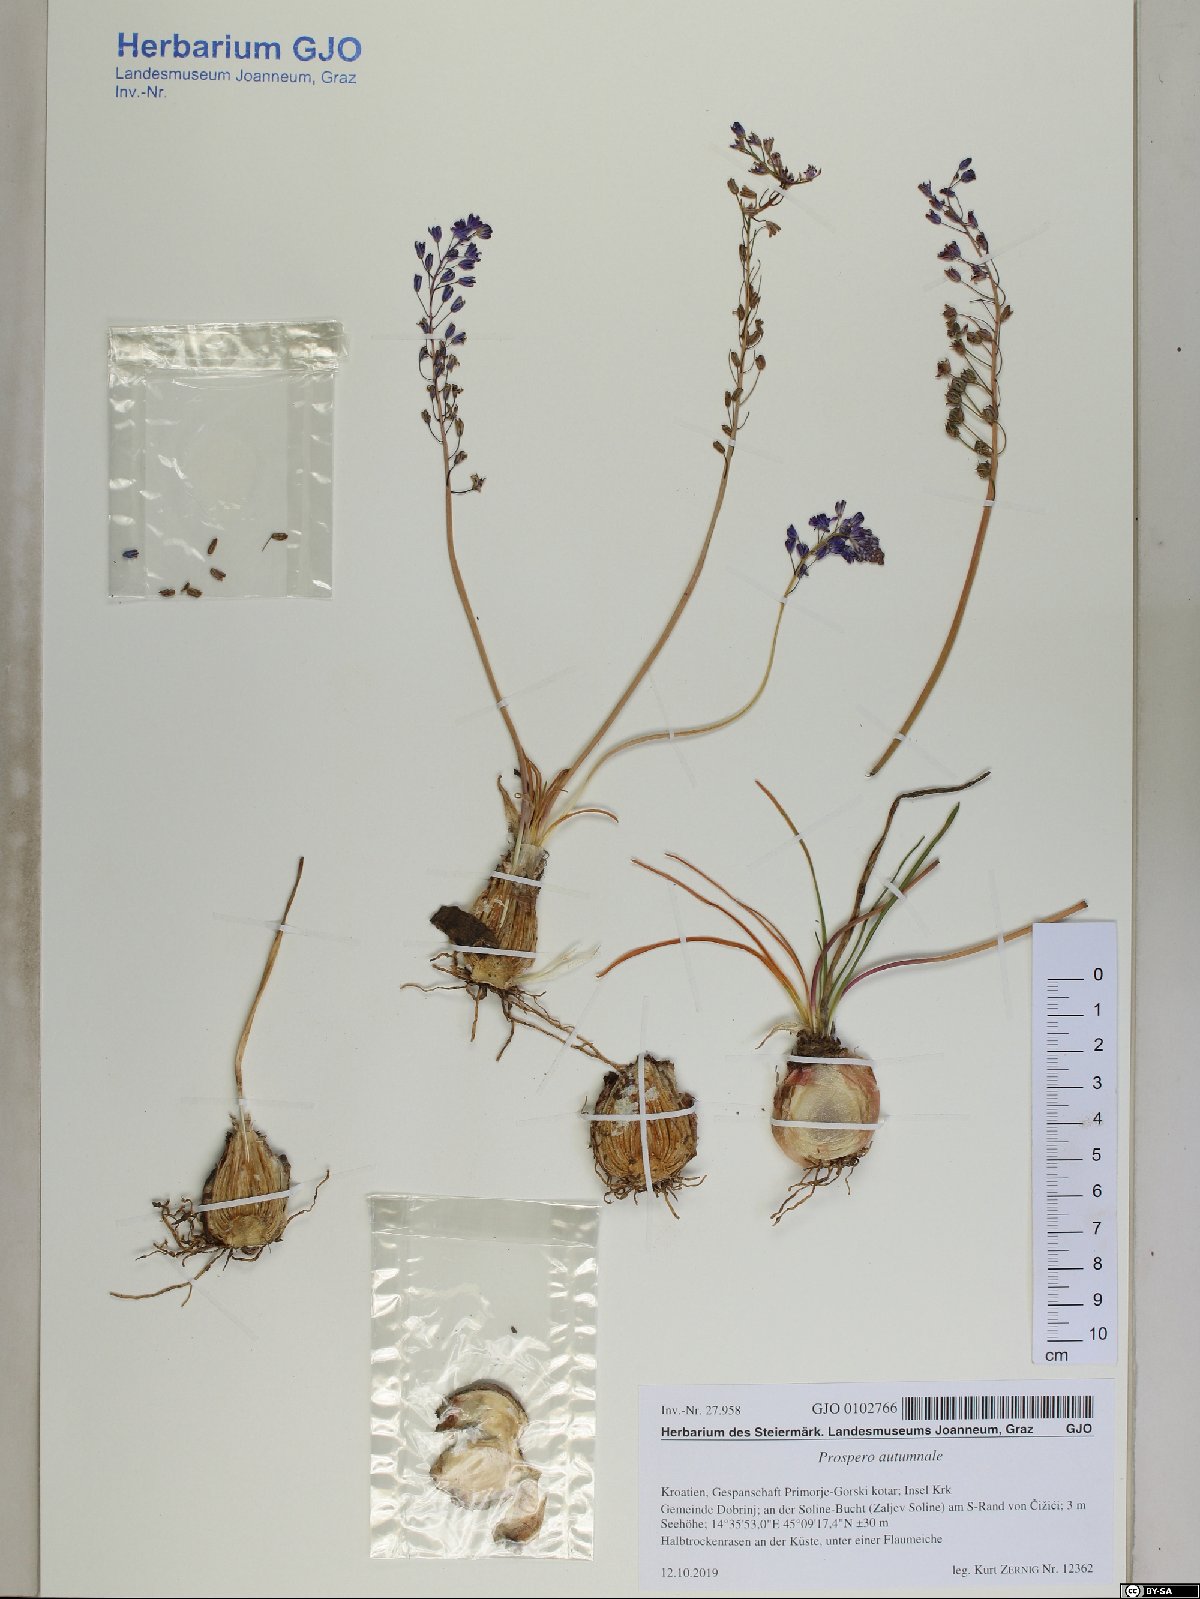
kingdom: Plantae
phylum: Tracheophyta
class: Liliopsida
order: Asparagales
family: Asparagaceae
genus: Prospero
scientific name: Prospero autumnale
